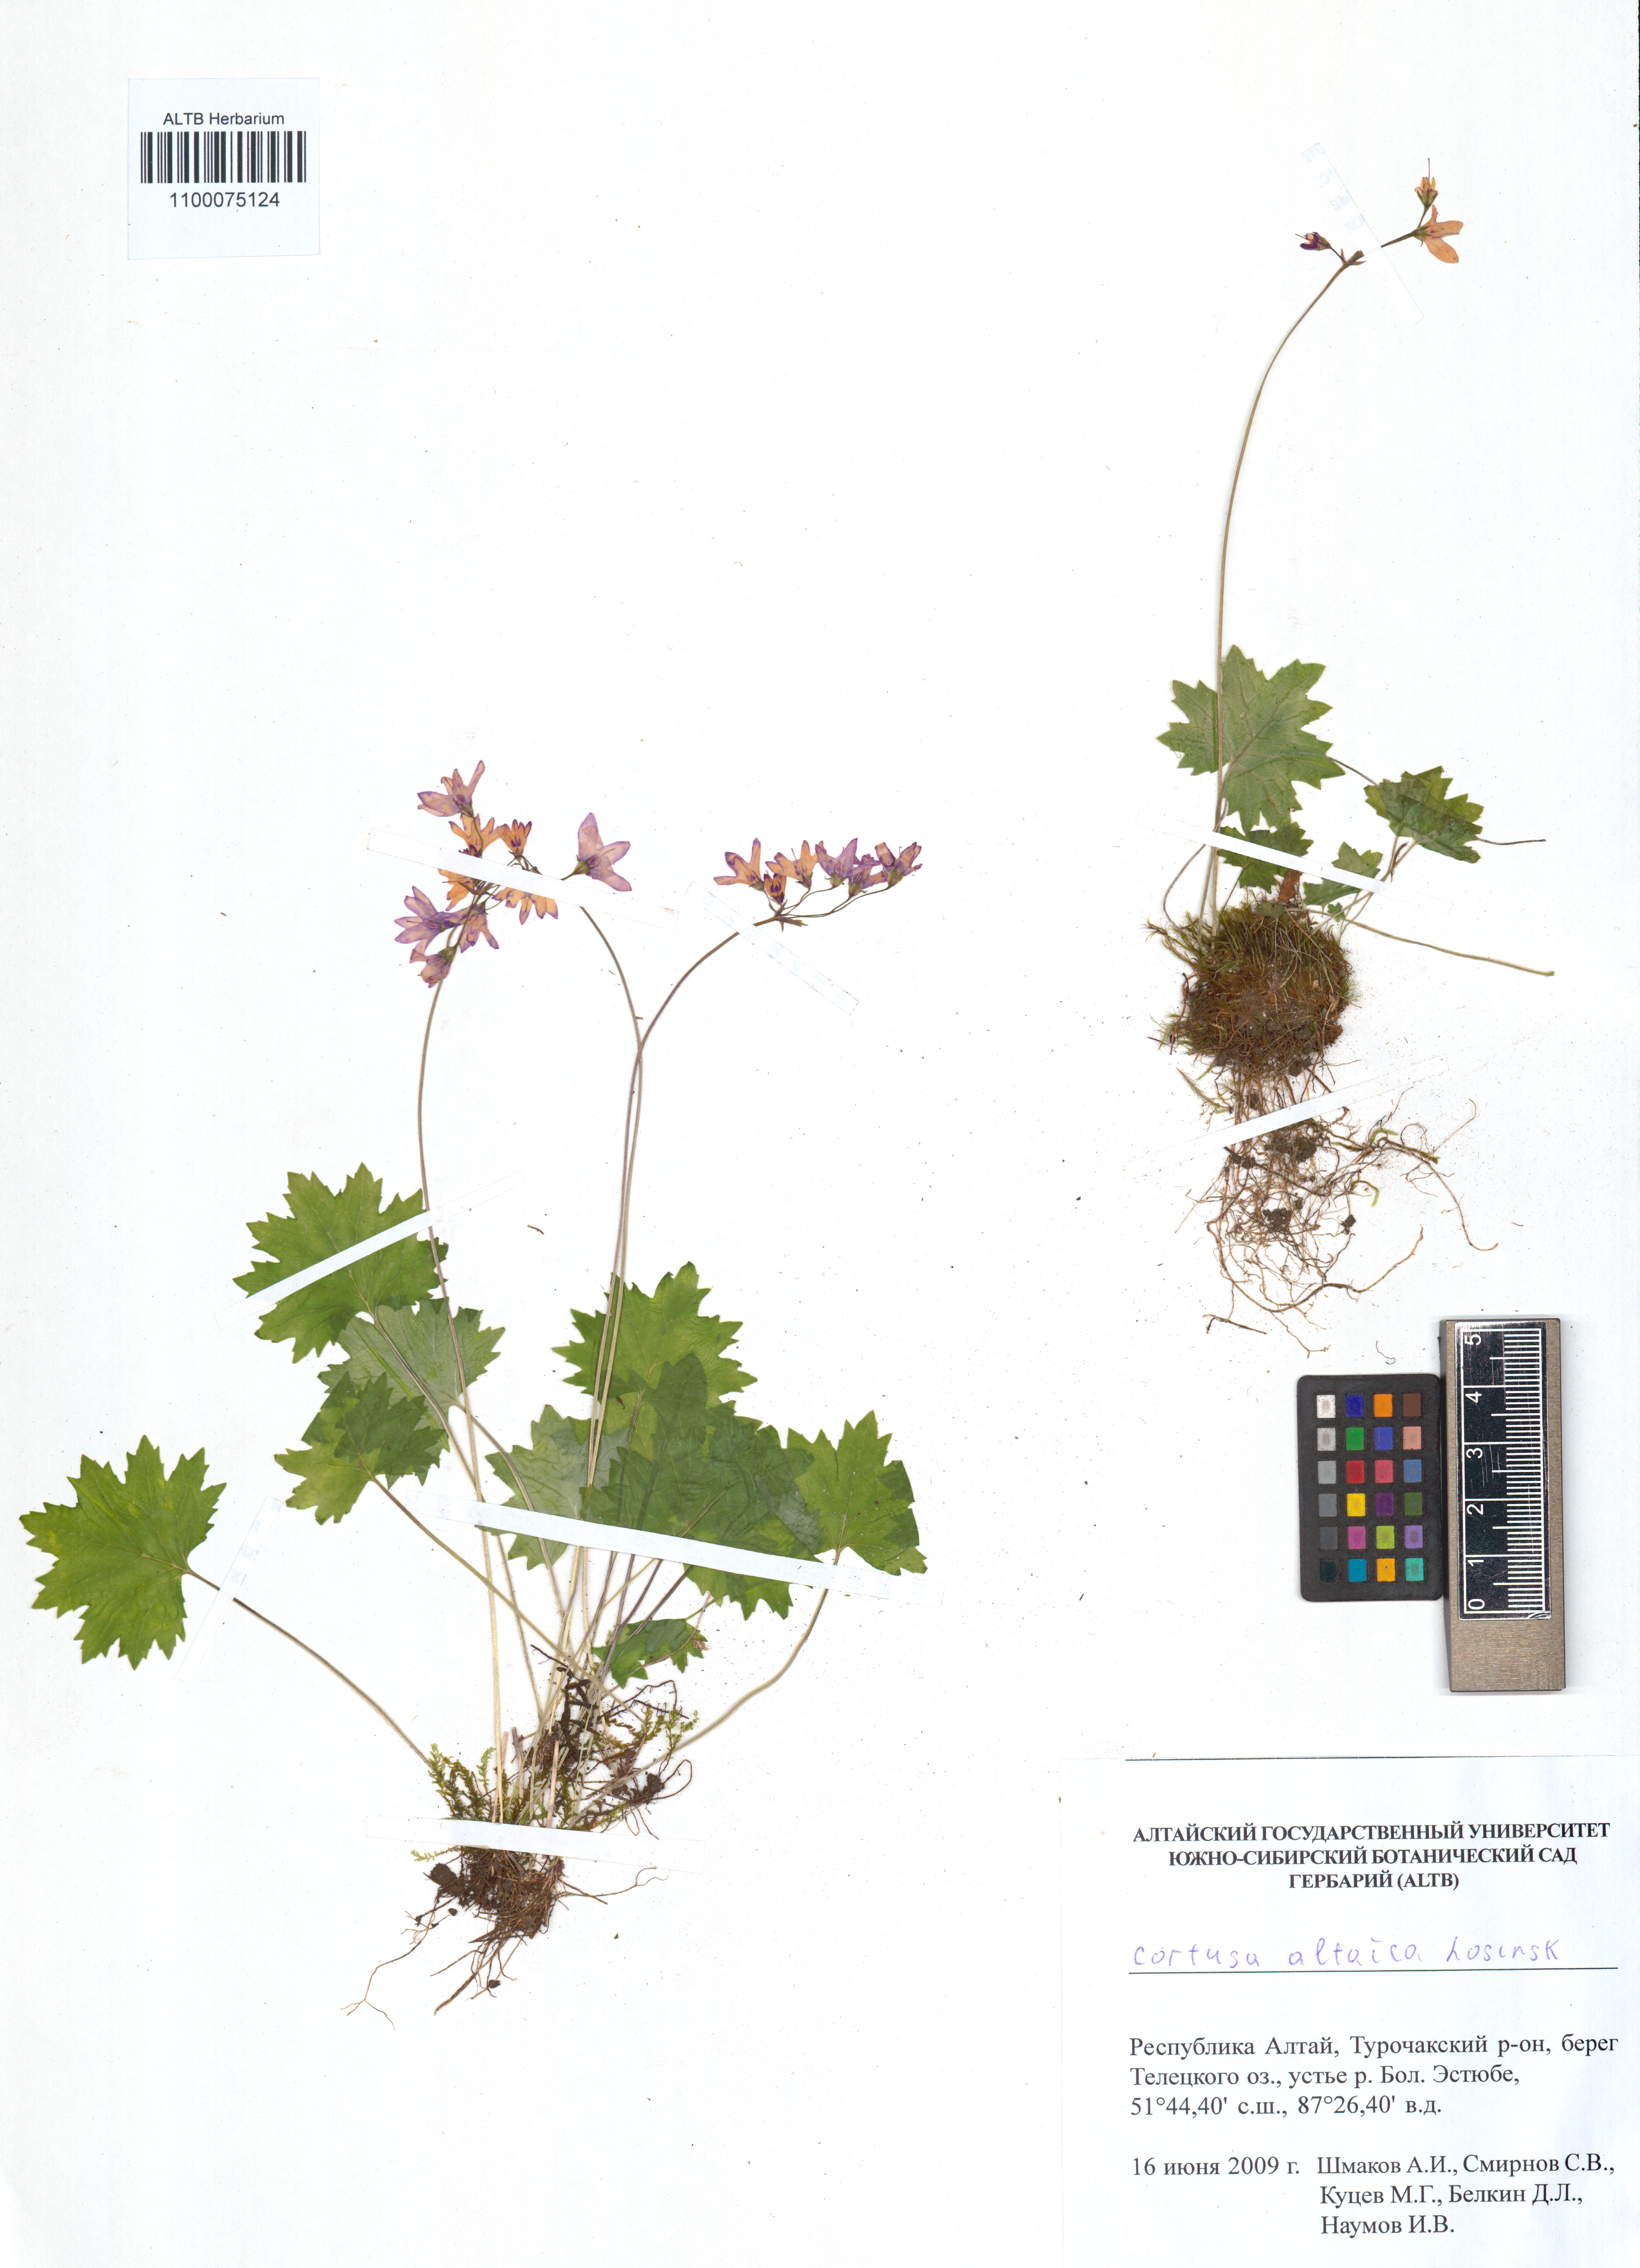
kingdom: Plantae
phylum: Tracheophyta
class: Magnoliopsida
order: Ericales
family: Primulaceae
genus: Primula
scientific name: Primula matthioli
